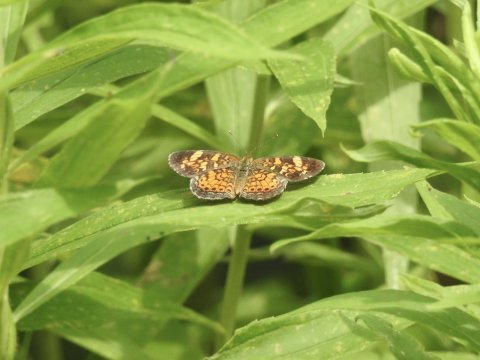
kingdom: Animalia
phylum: Arthropoda
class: Insecta
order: Lepidoptera
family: Nymphalidae
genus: Phyciodes
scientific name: Phyciodes tharos
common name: Pearl Crescent
